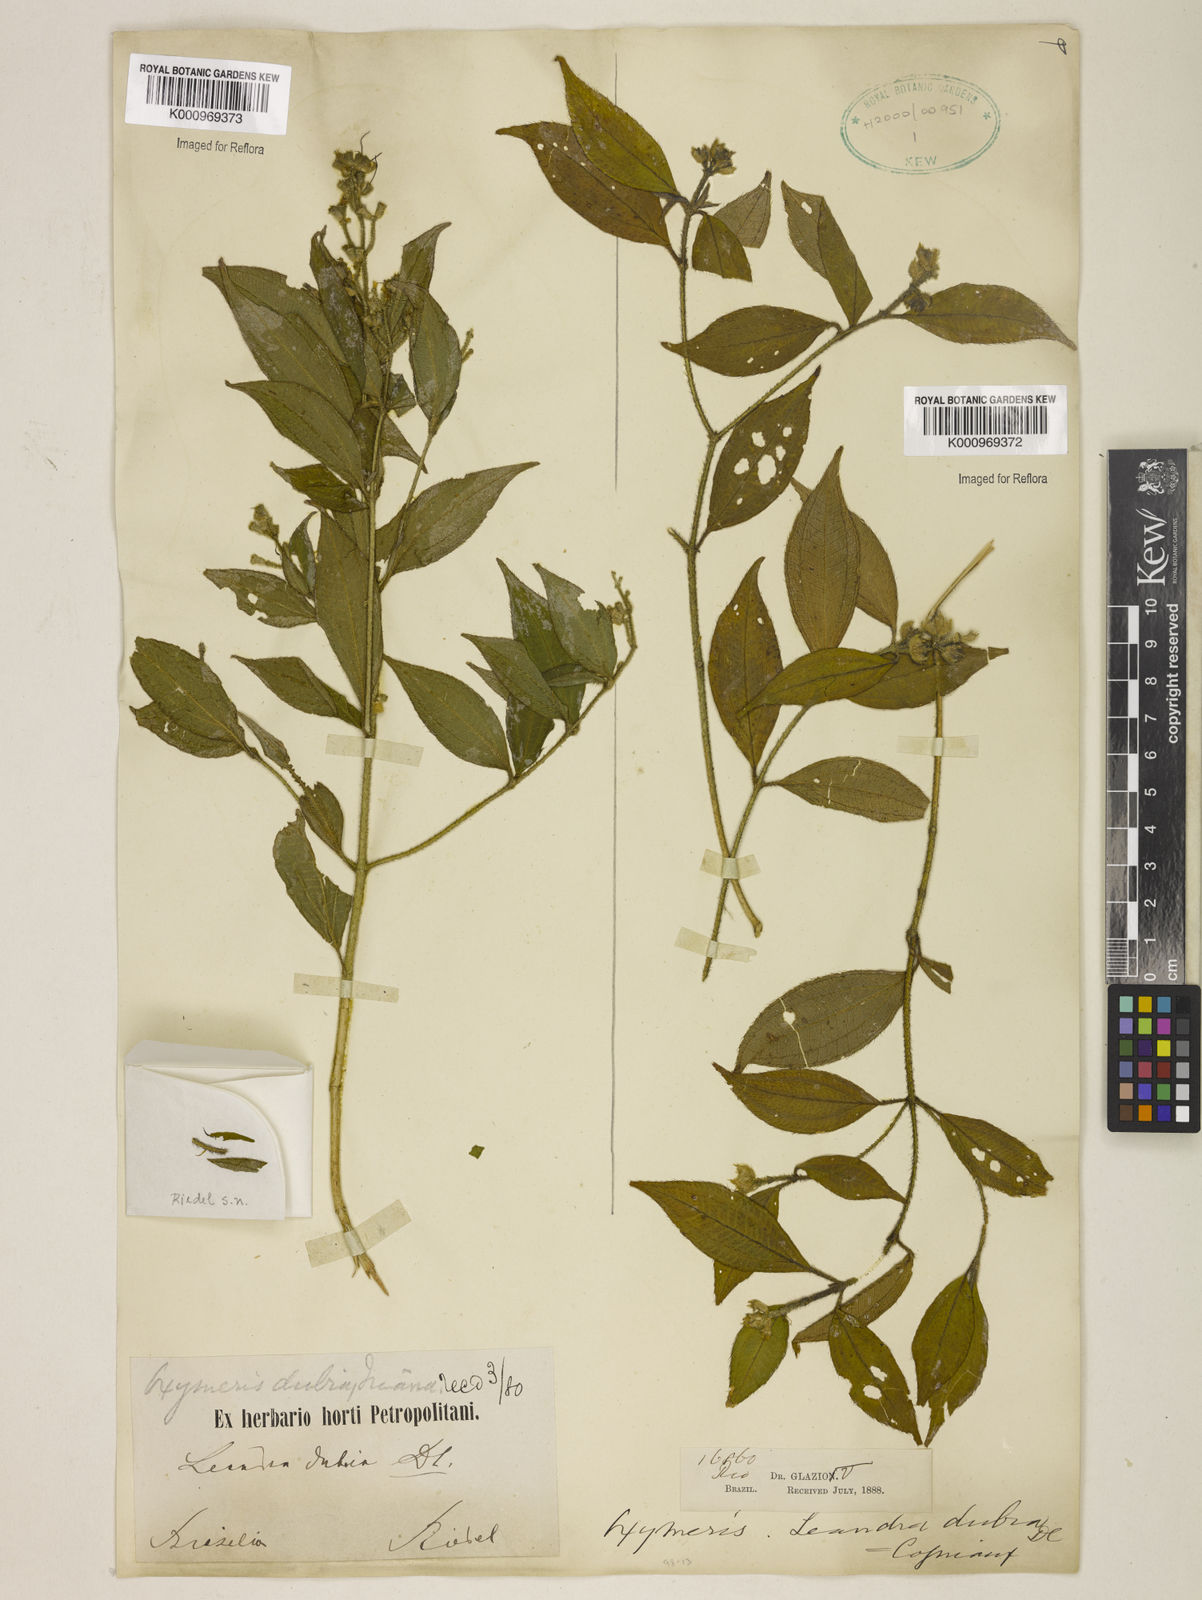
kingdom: Plantae
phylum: Tracheophyta
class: Magnoliopsida
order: Myrtales
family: Melastomataceae
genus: Miconia
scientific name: Miconia dubia
